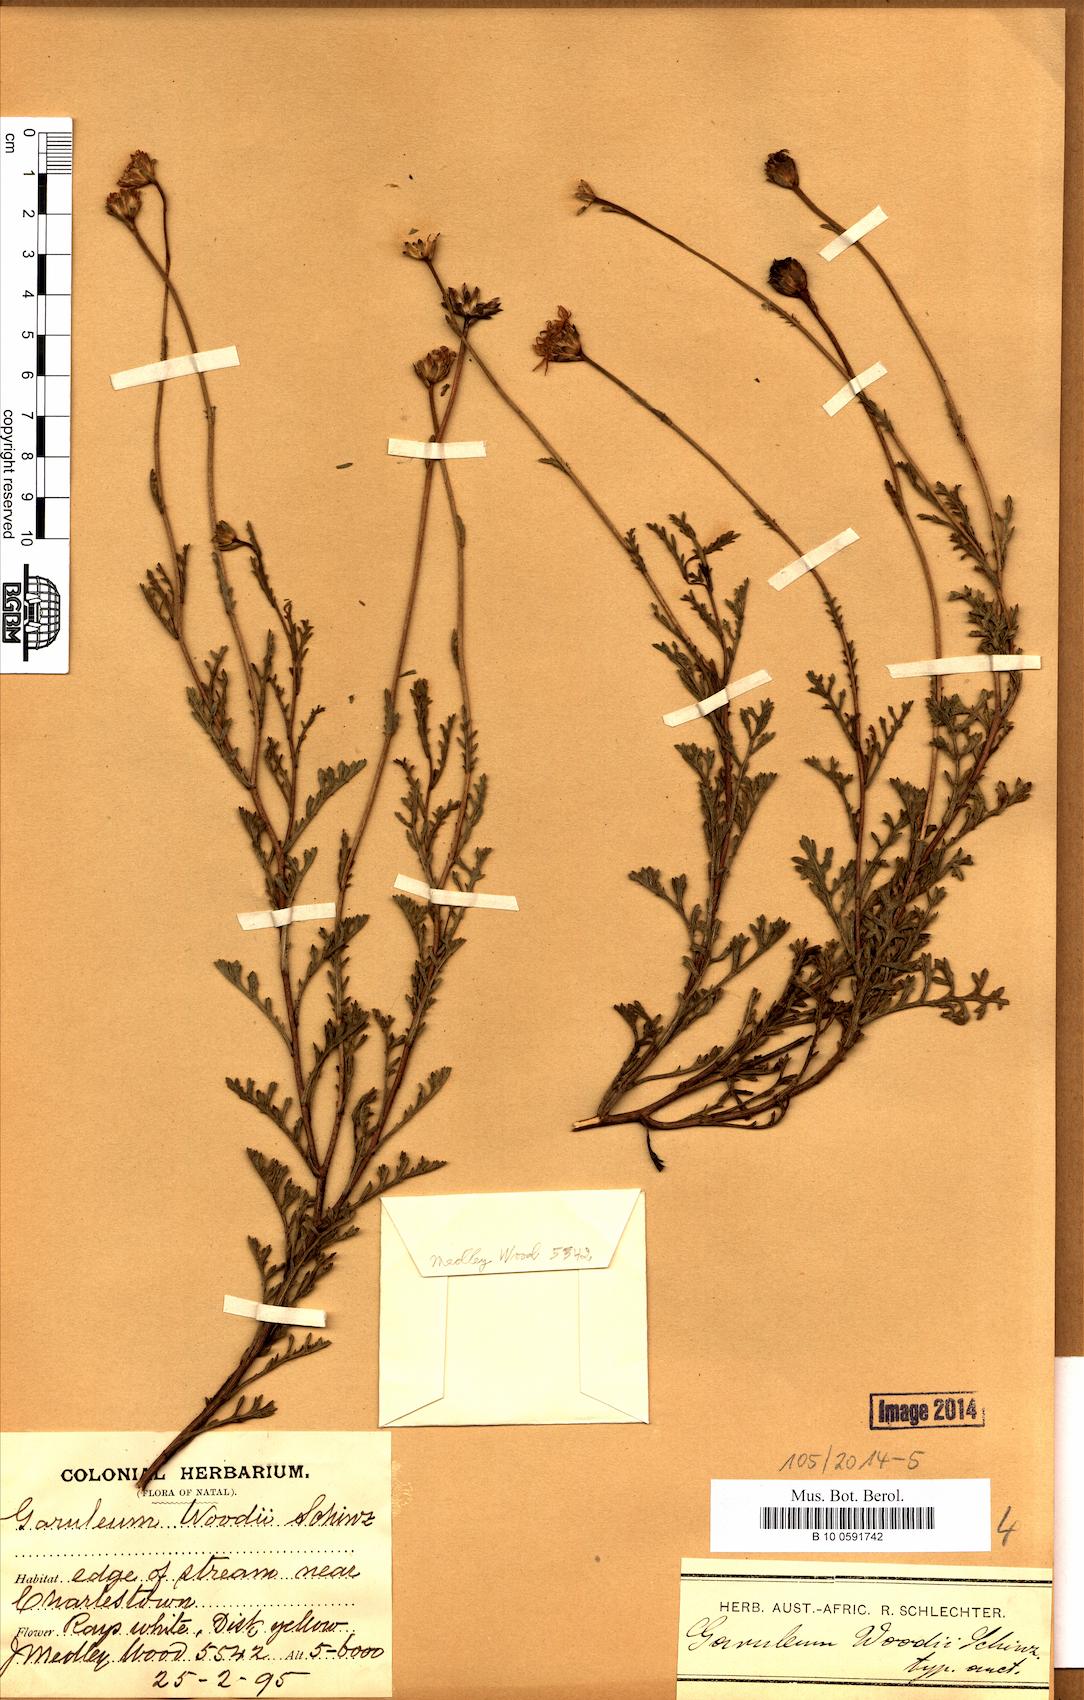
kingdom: Plantae
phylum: Tracheophyta
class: Magnoliopsida
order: Asterales
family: Asteraceae
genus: Garuleum
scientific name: Garuleum woodii
